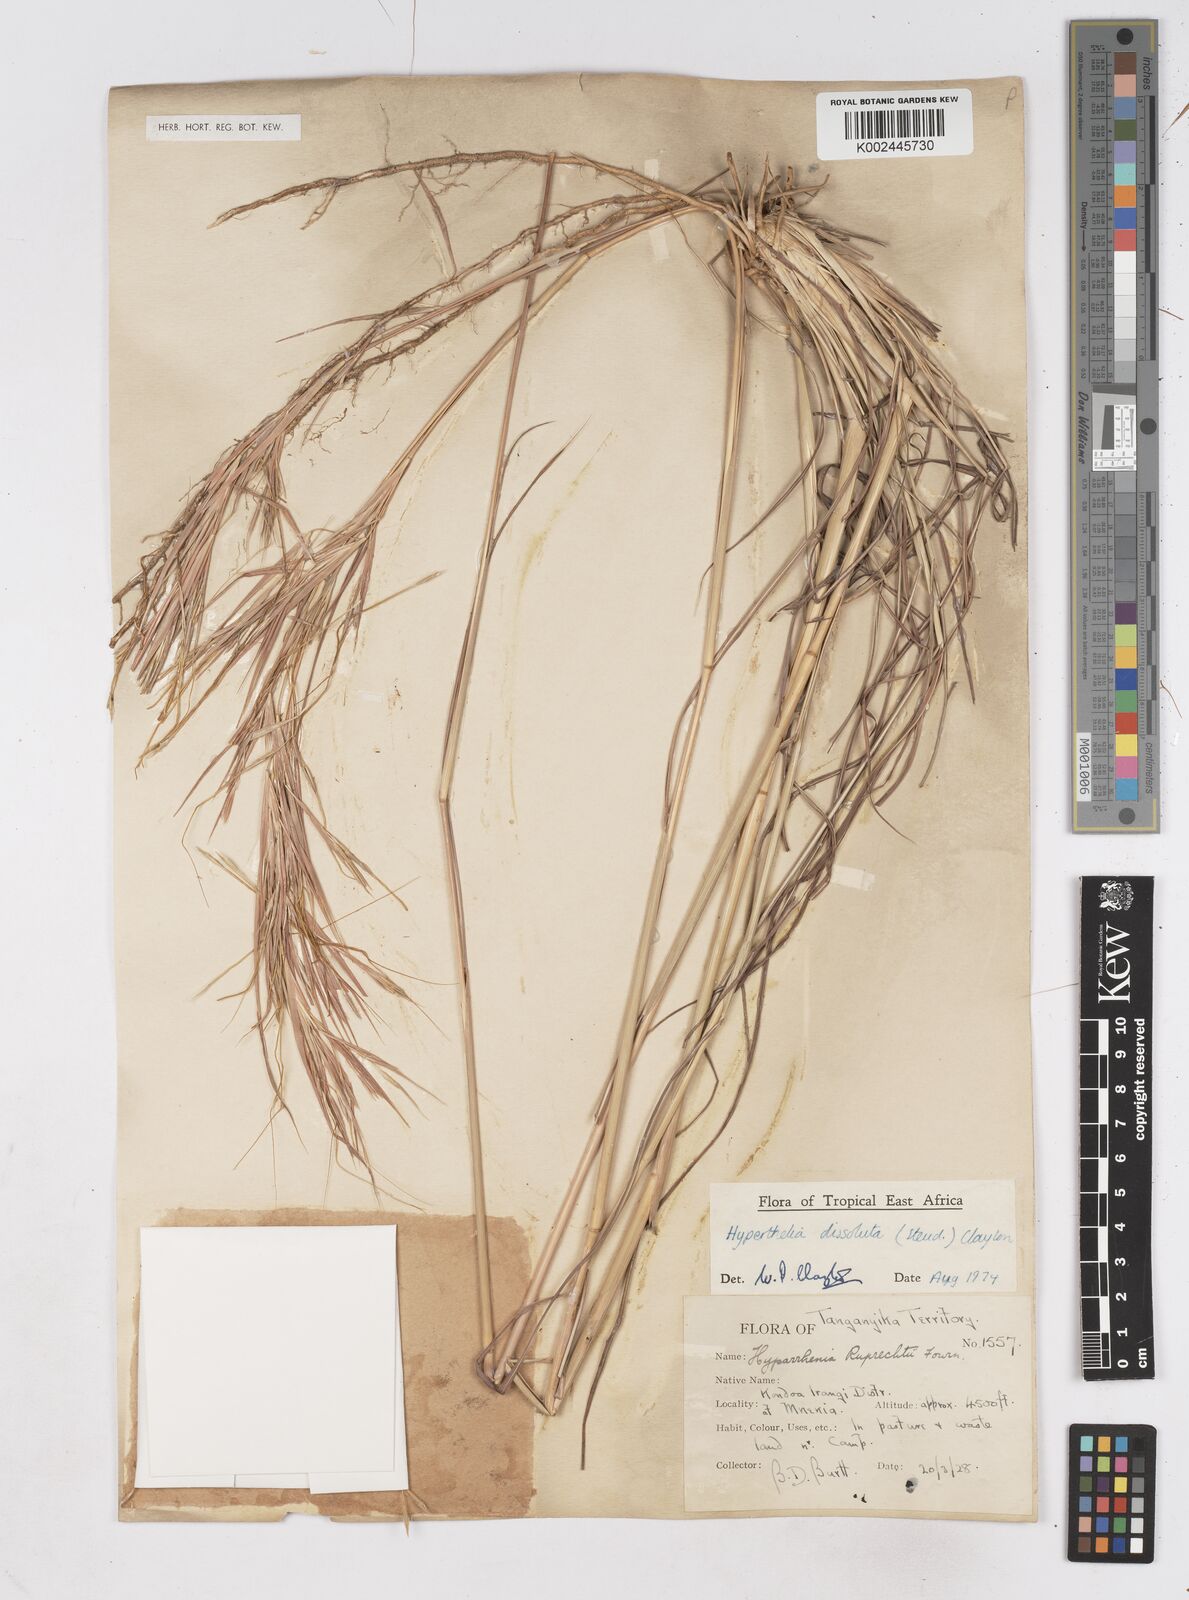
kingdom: Plantae
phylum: Tracheophyta
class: Liliopsida
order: Poales
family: Poaceae
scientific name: Poaceae
